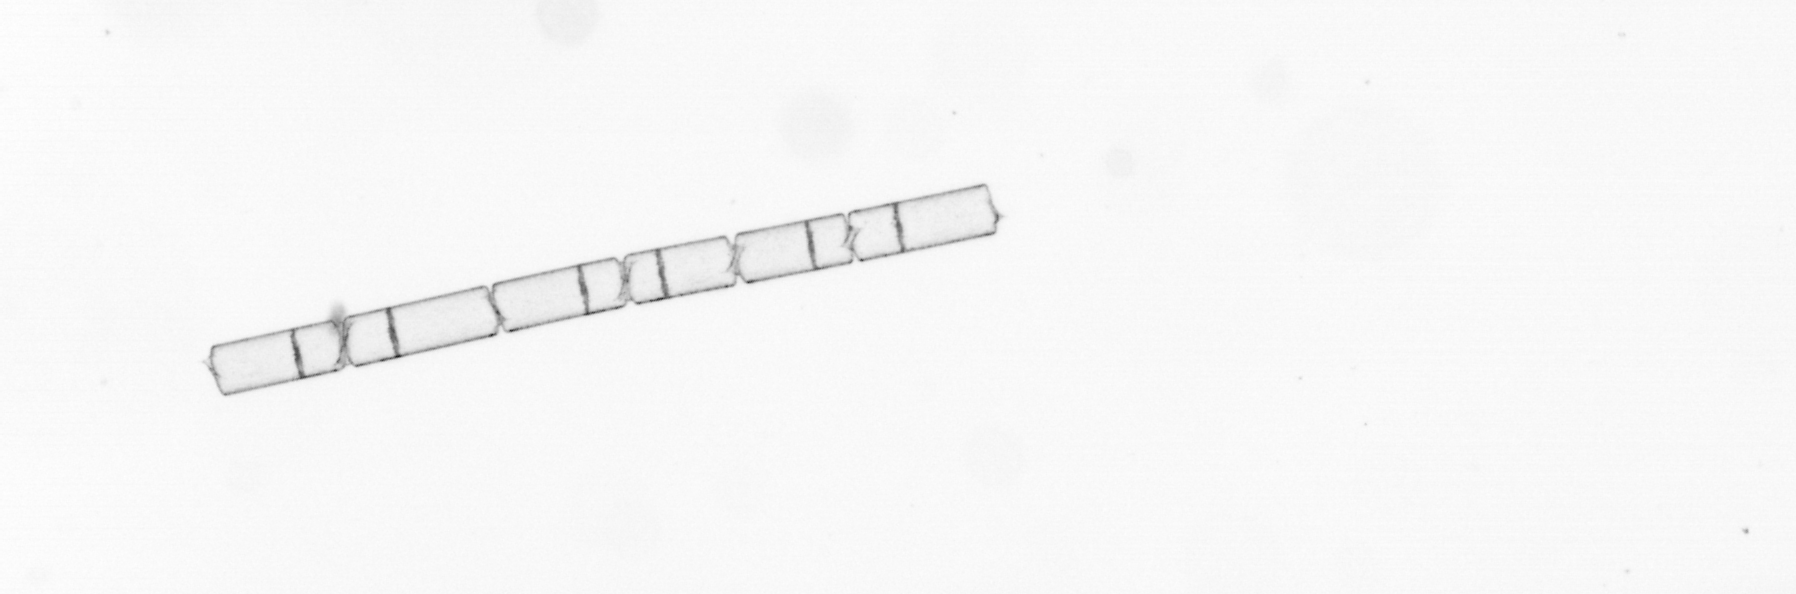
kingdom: Chromista
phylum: Ochrophyta
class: Bacillariophyceae
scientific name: Bacillariophyceae
